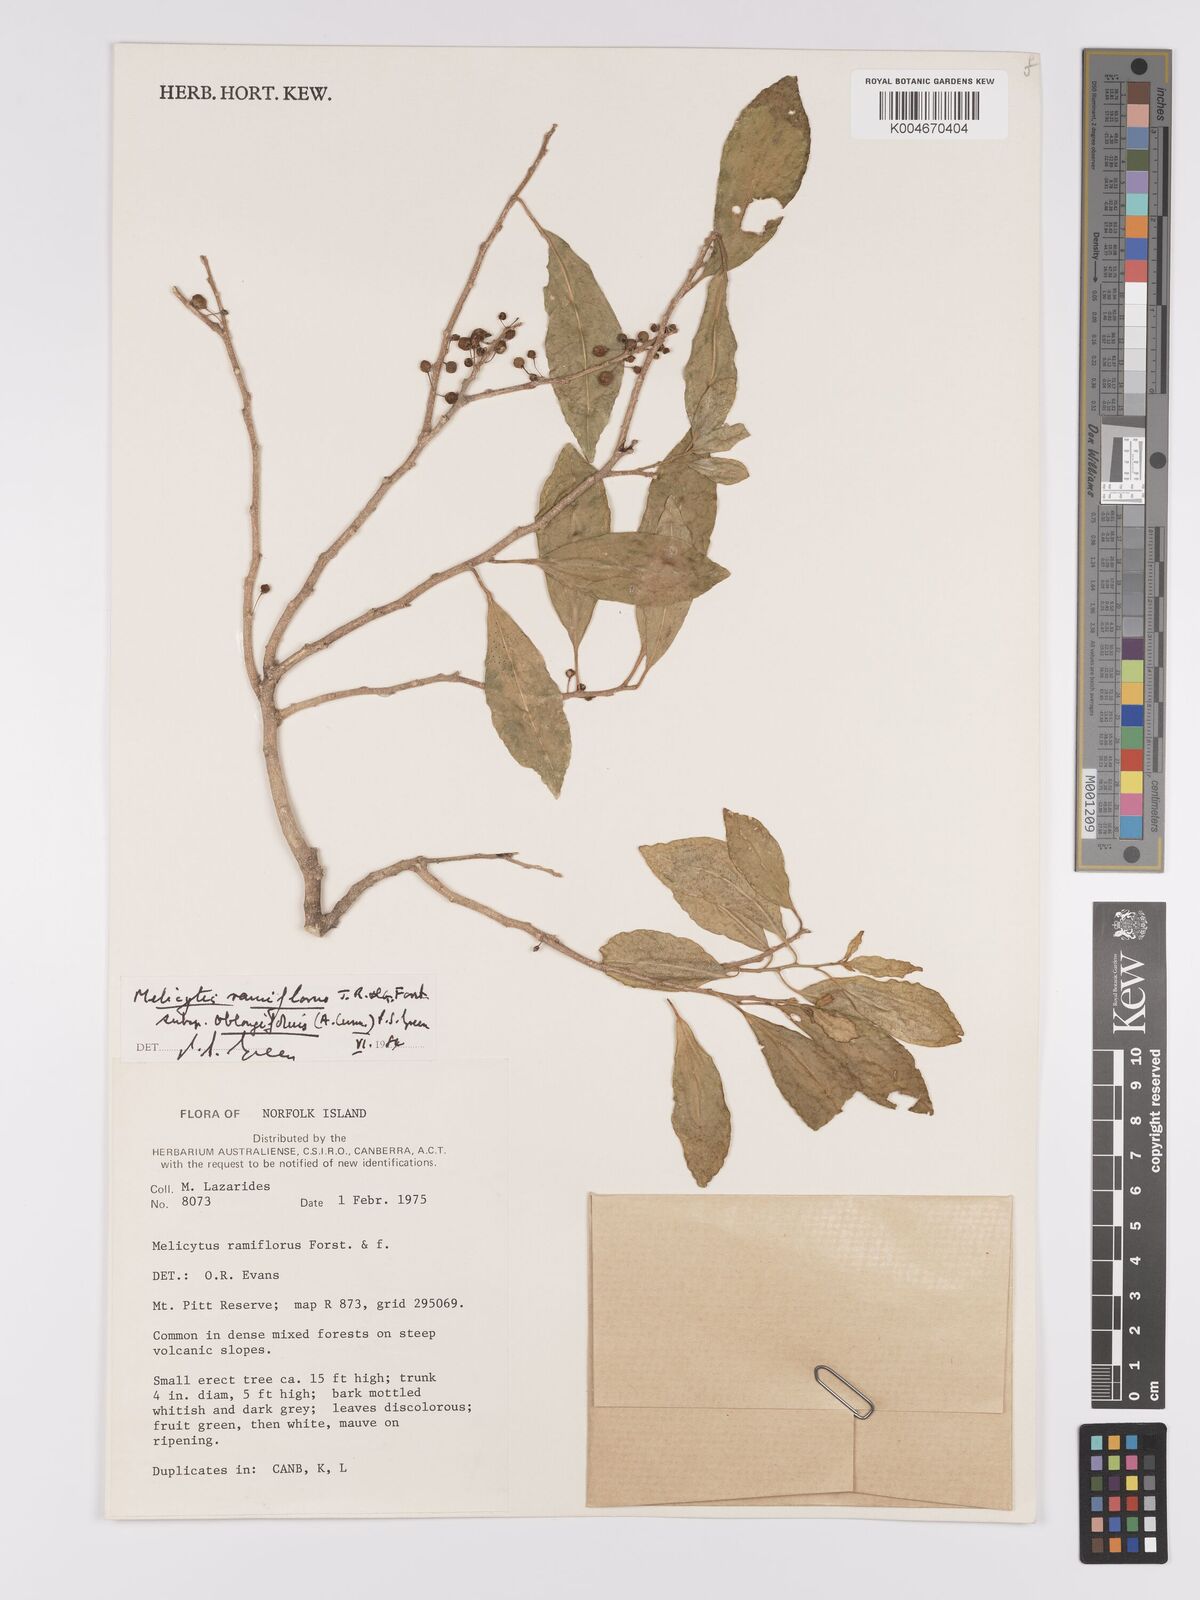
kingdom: Plantae
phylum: Tracheophyta
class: Magnoliopsida
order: Malpighiales
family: Violaceae
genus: Melicytus
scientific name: Melicytus ramiflorus
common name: Mahoe
